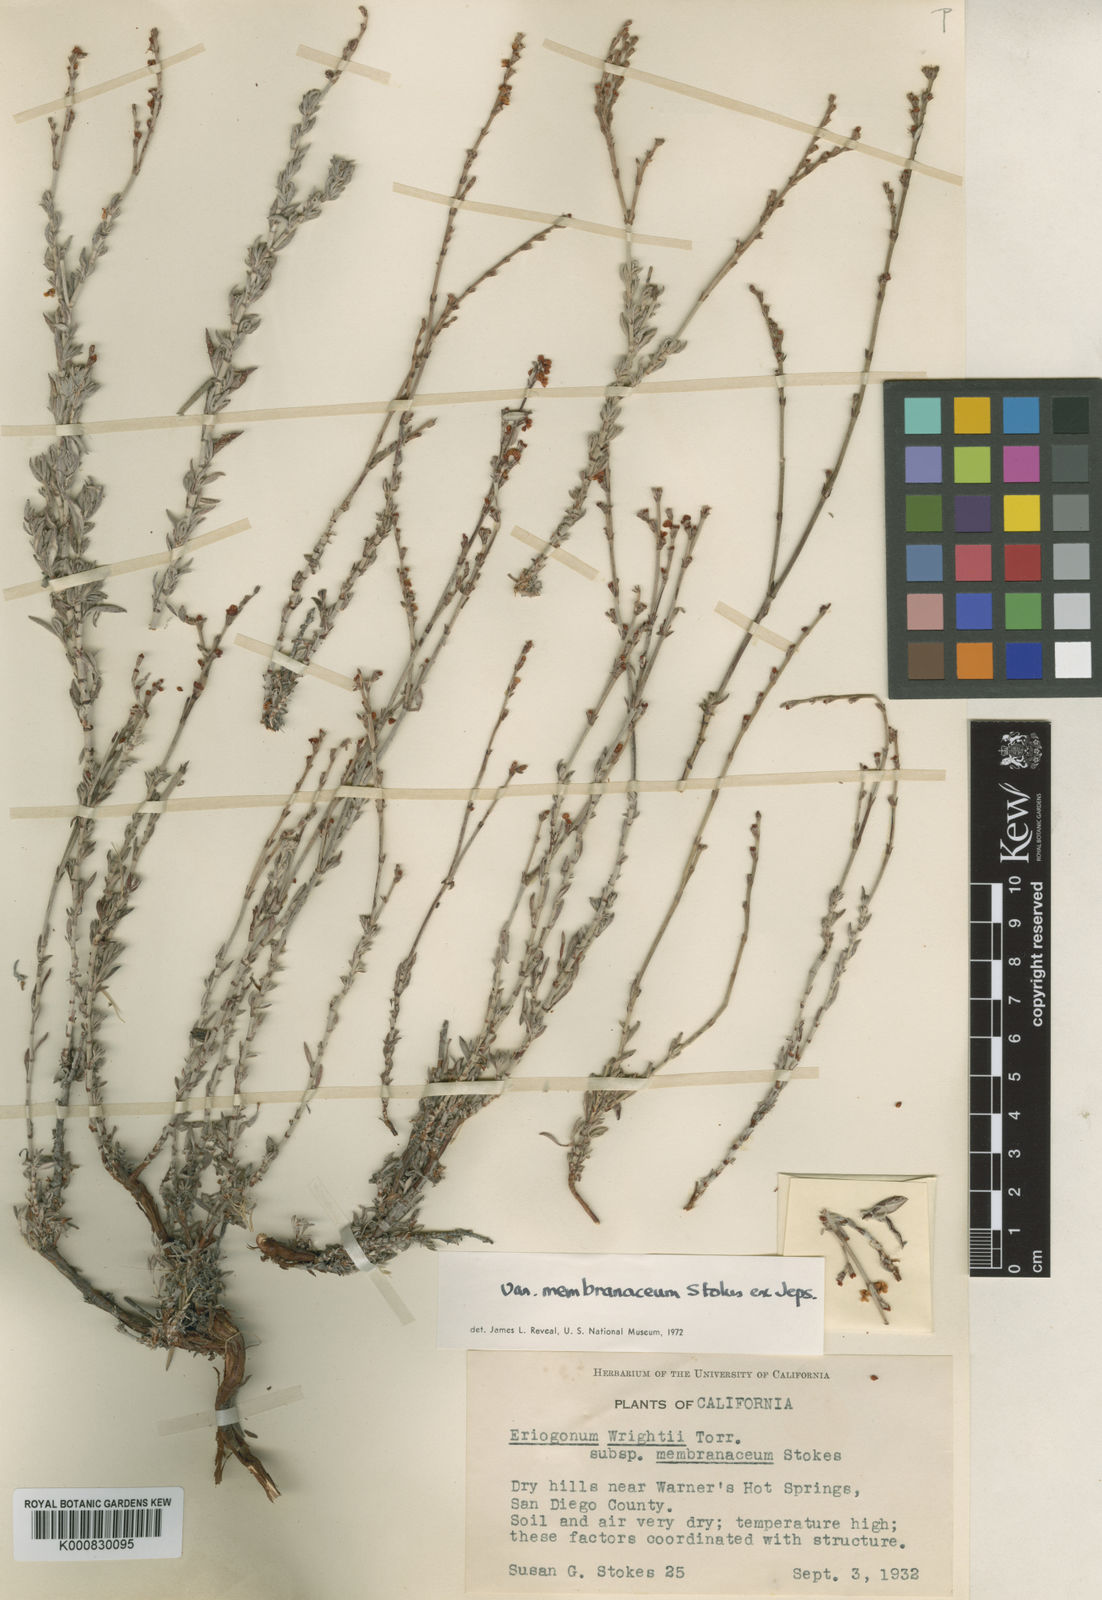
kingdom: Plantae
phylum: Tracheophyta
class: Magnoliopsida
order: Caryophyllales
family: Polygonaceae
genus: Eriogonum
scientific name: Eriogonum wrightii
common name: Bastard-sage
